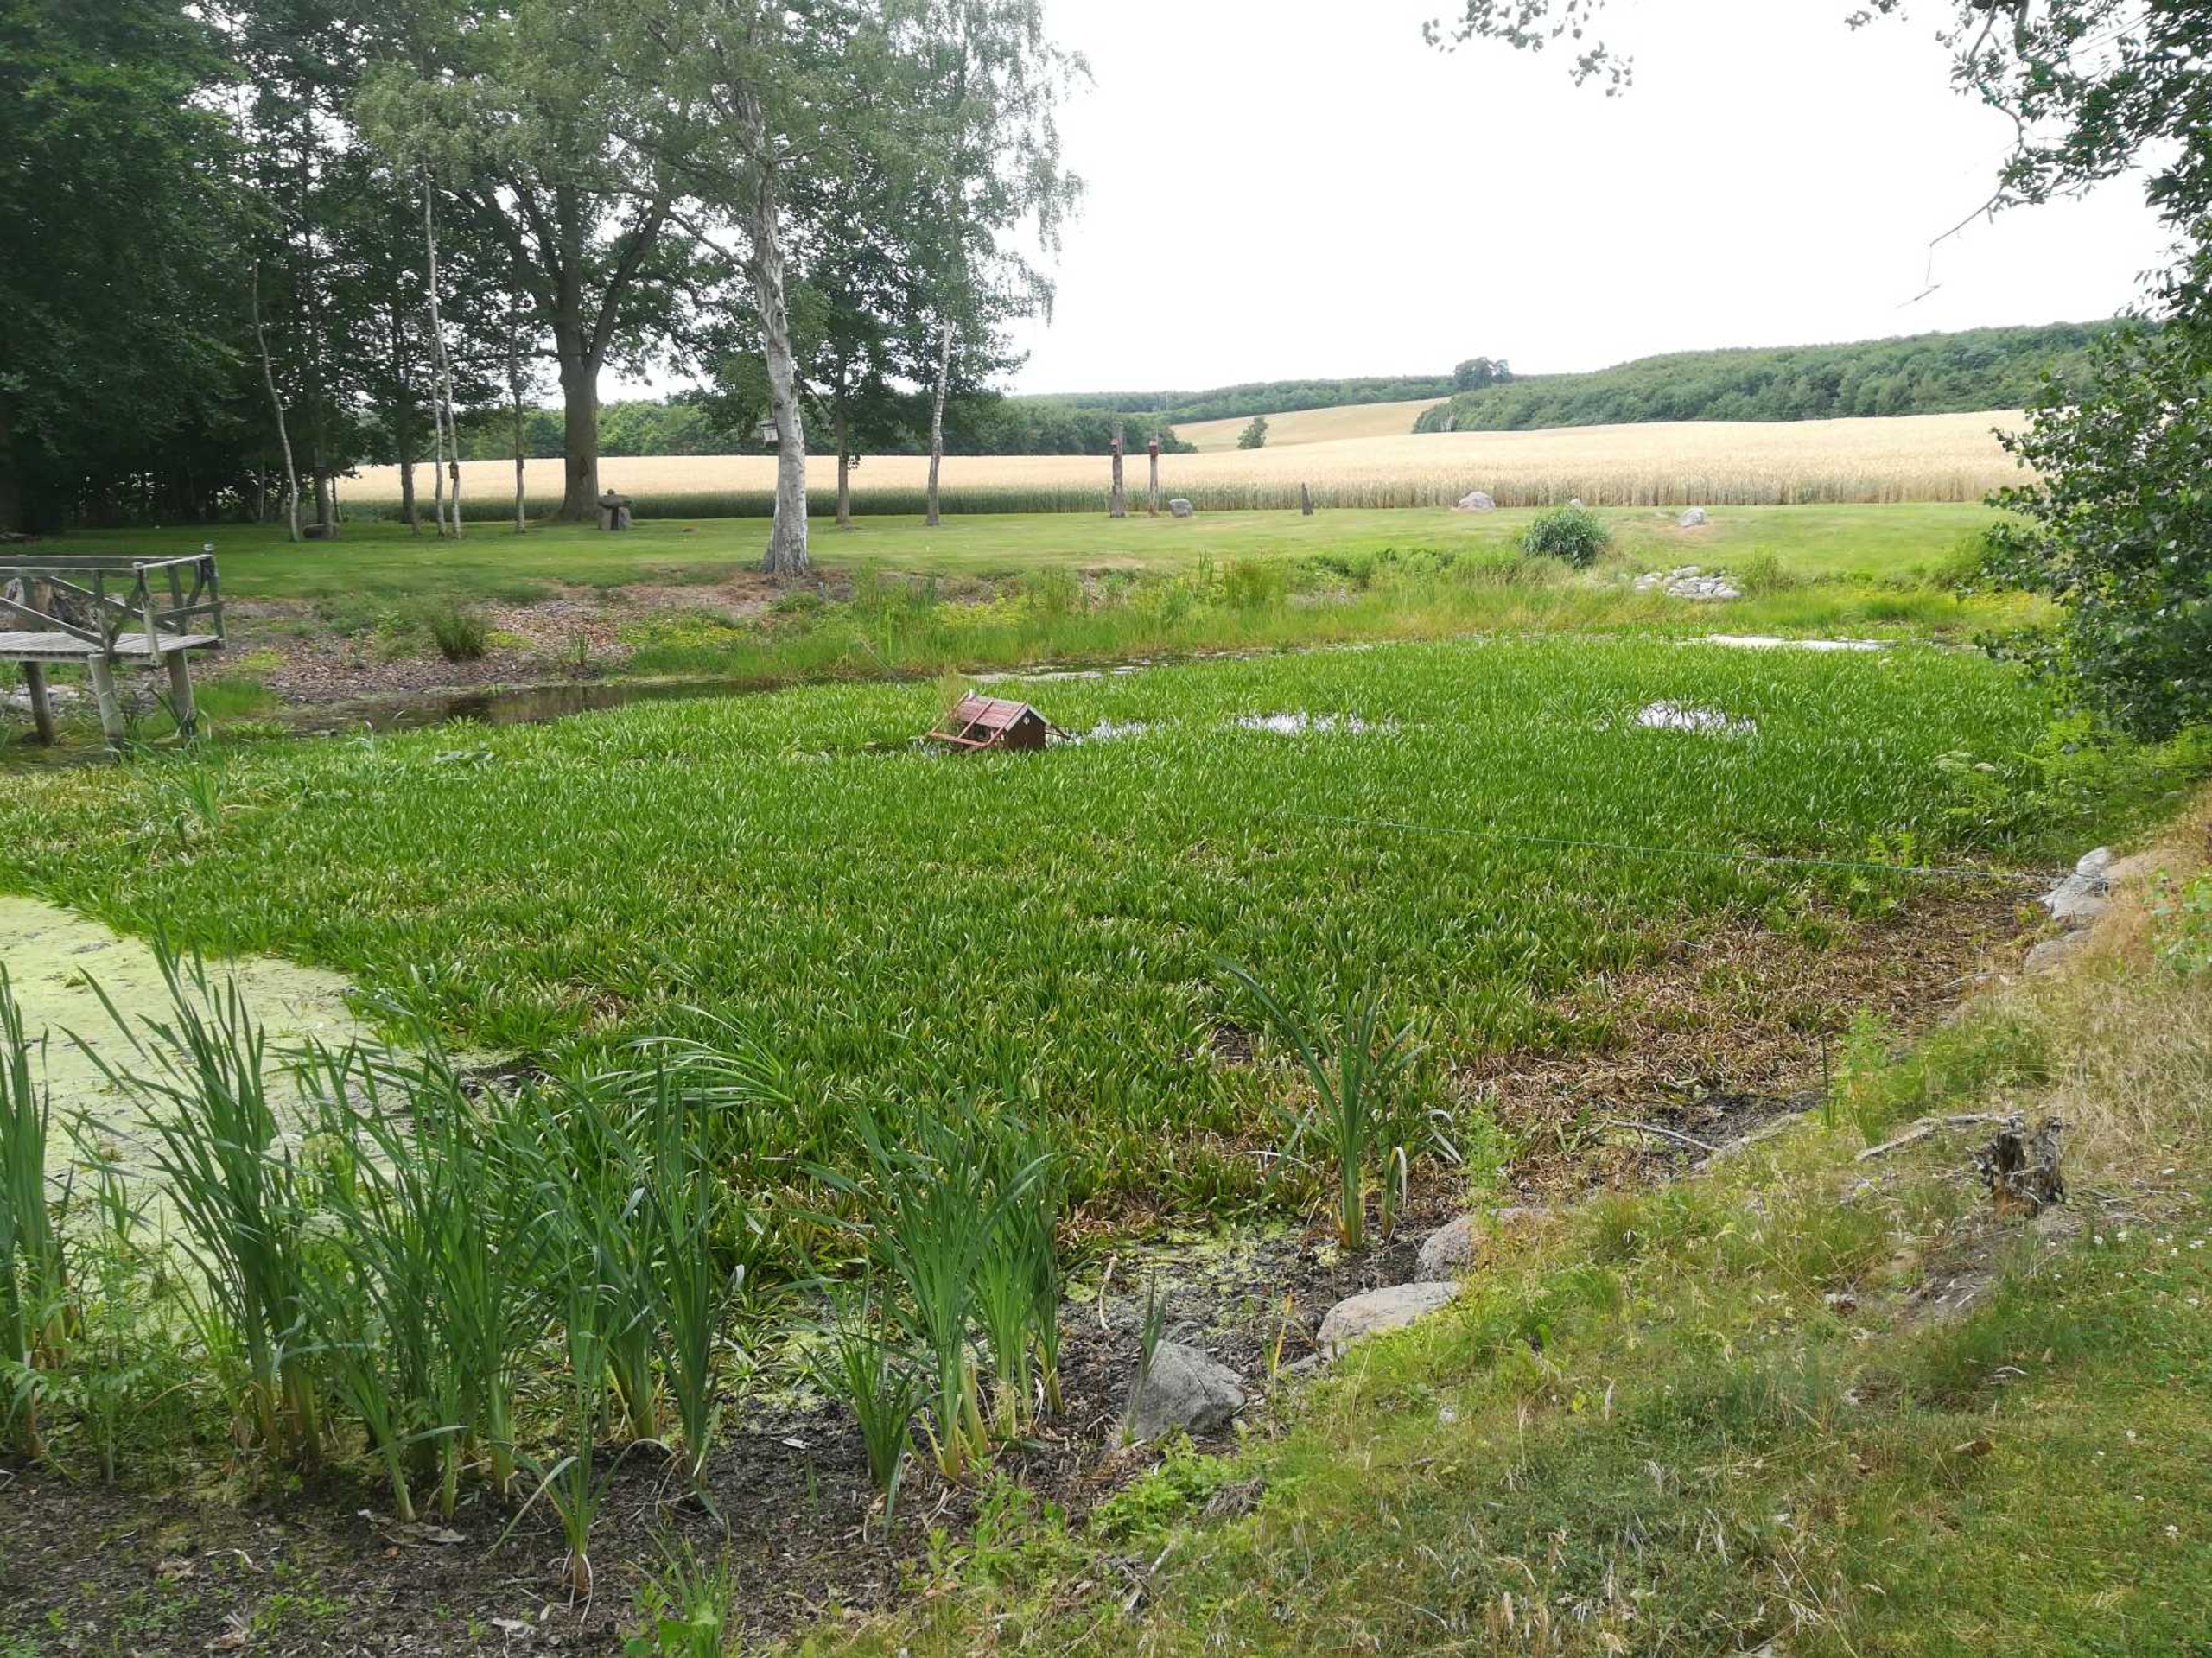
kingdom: Plantae
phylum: Tracheophyta
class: Liliopsida
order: Alismatales
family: Hydrocharitaceae
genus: Stratiotes
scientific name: Stratiotes aloides
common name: Krebseklo
